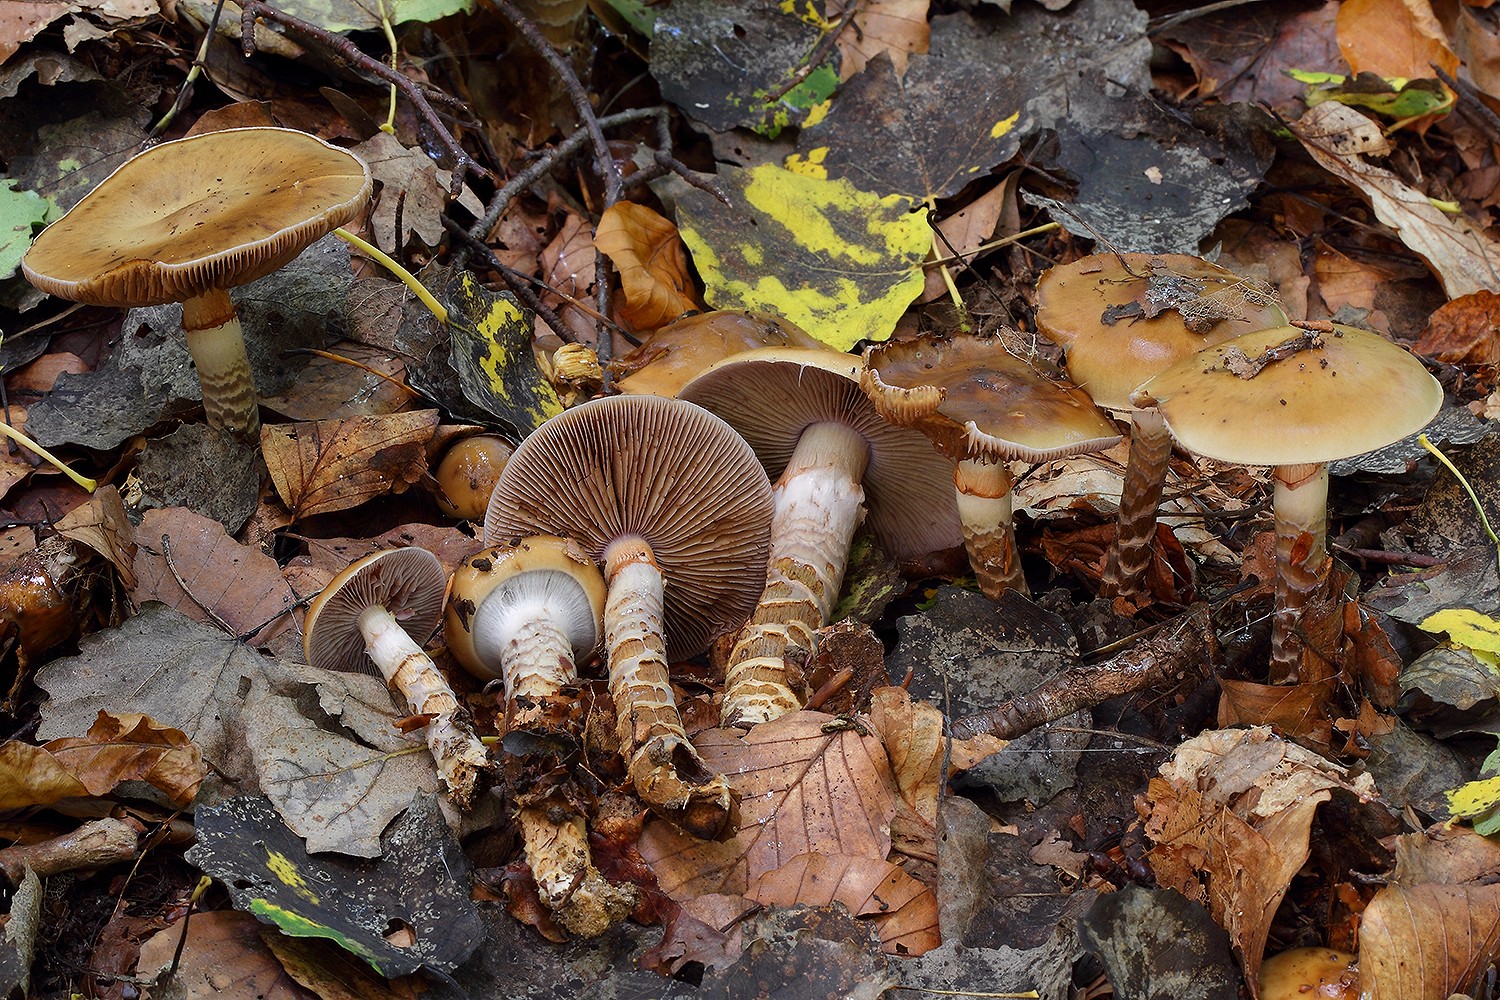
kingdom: Fungi
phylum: Basidiomycota
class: Agaricomycetes
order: Agaricales
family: Cortinariaceae
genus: Cortinarius
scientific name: Cortinarius trivialis
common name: brunslimet slørhat
